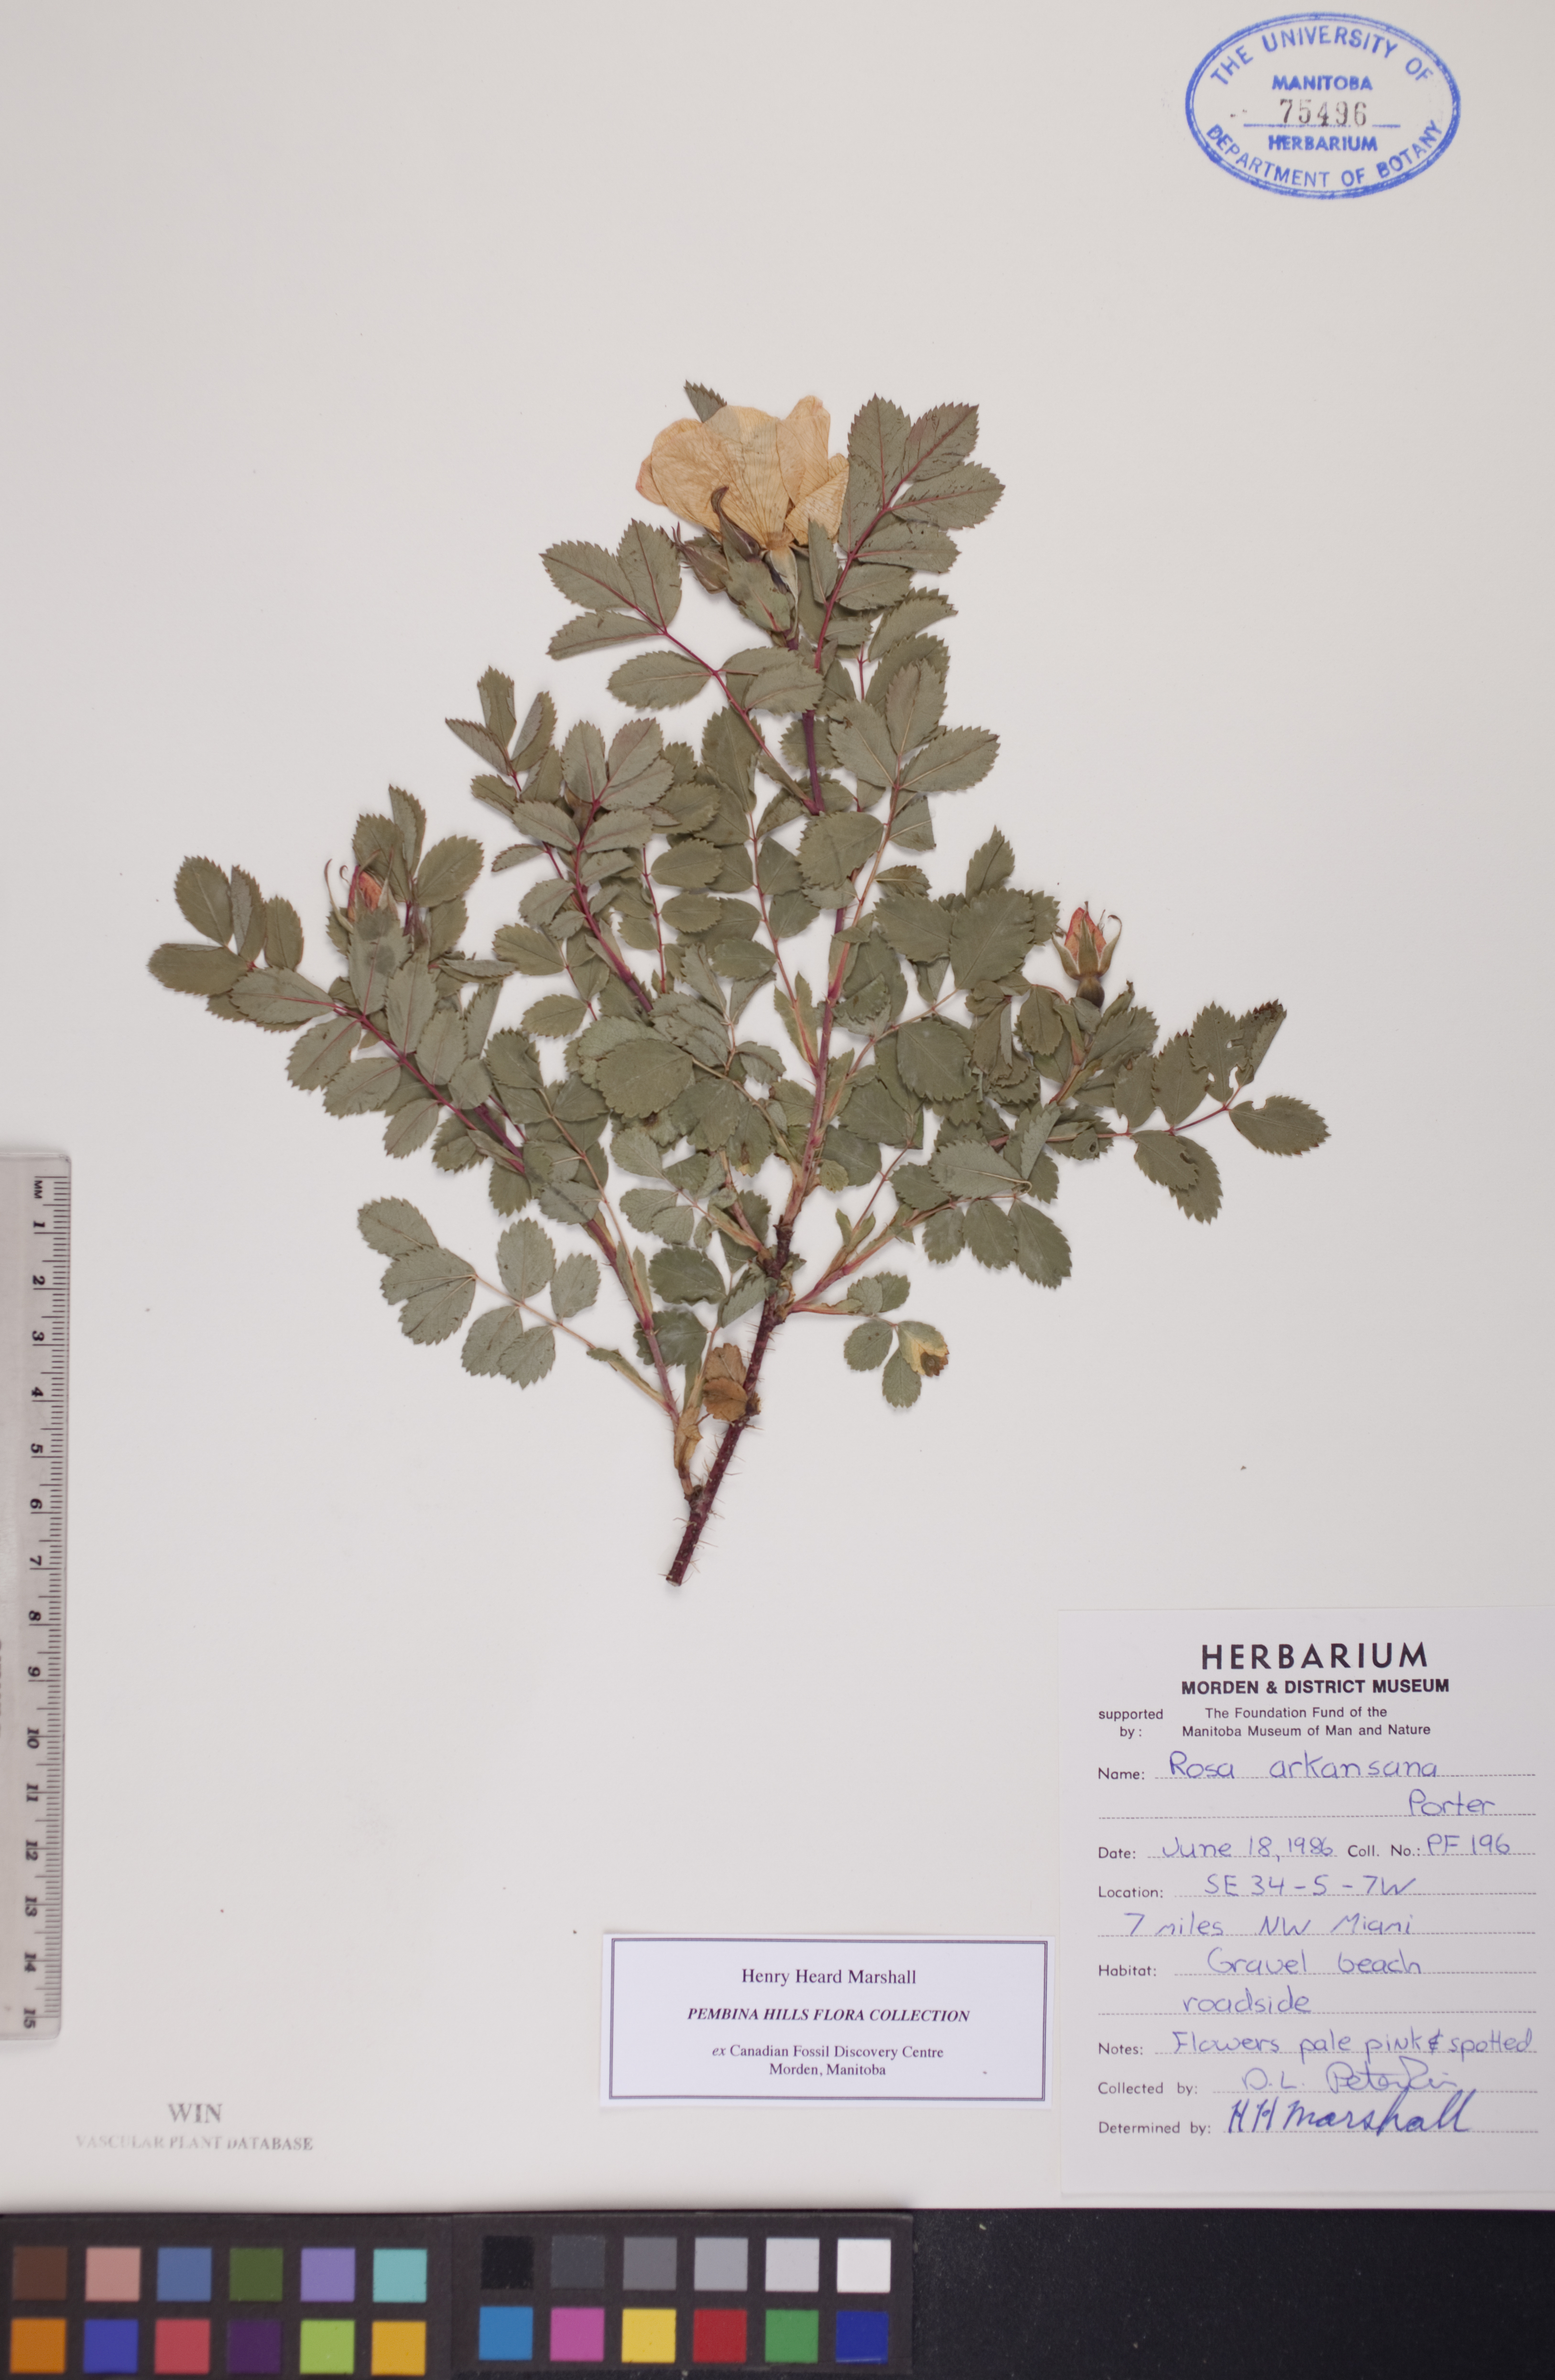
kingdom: Plantae
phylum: Tracheophyta
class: Magnoliopsida
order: Rosales
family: Rosaceae
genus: Rosa
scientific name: Rosa arkansana
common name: Prairie rose
